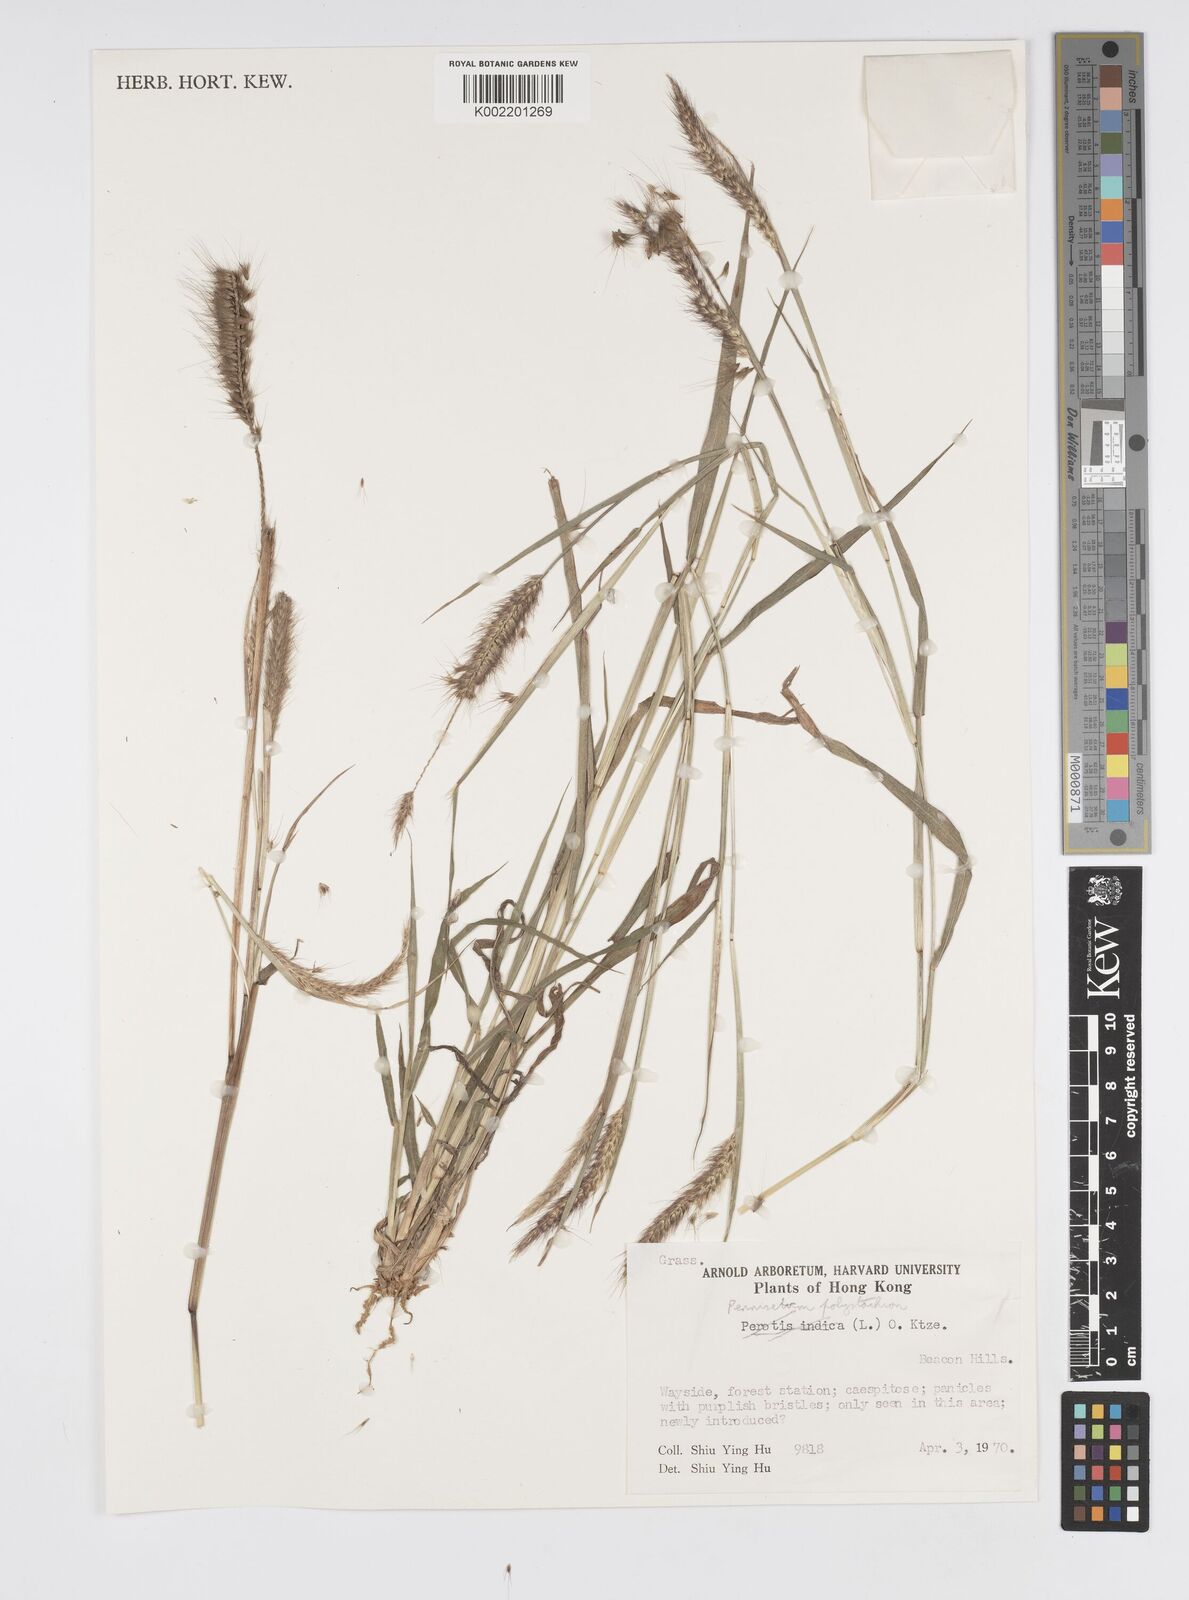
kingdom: Plantae
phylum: Tracheophyta
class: Liliopsida
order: Poales
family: Poaceae
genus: Setaria
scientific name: Setaria parviflora
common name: Knotroot bristle-grass
